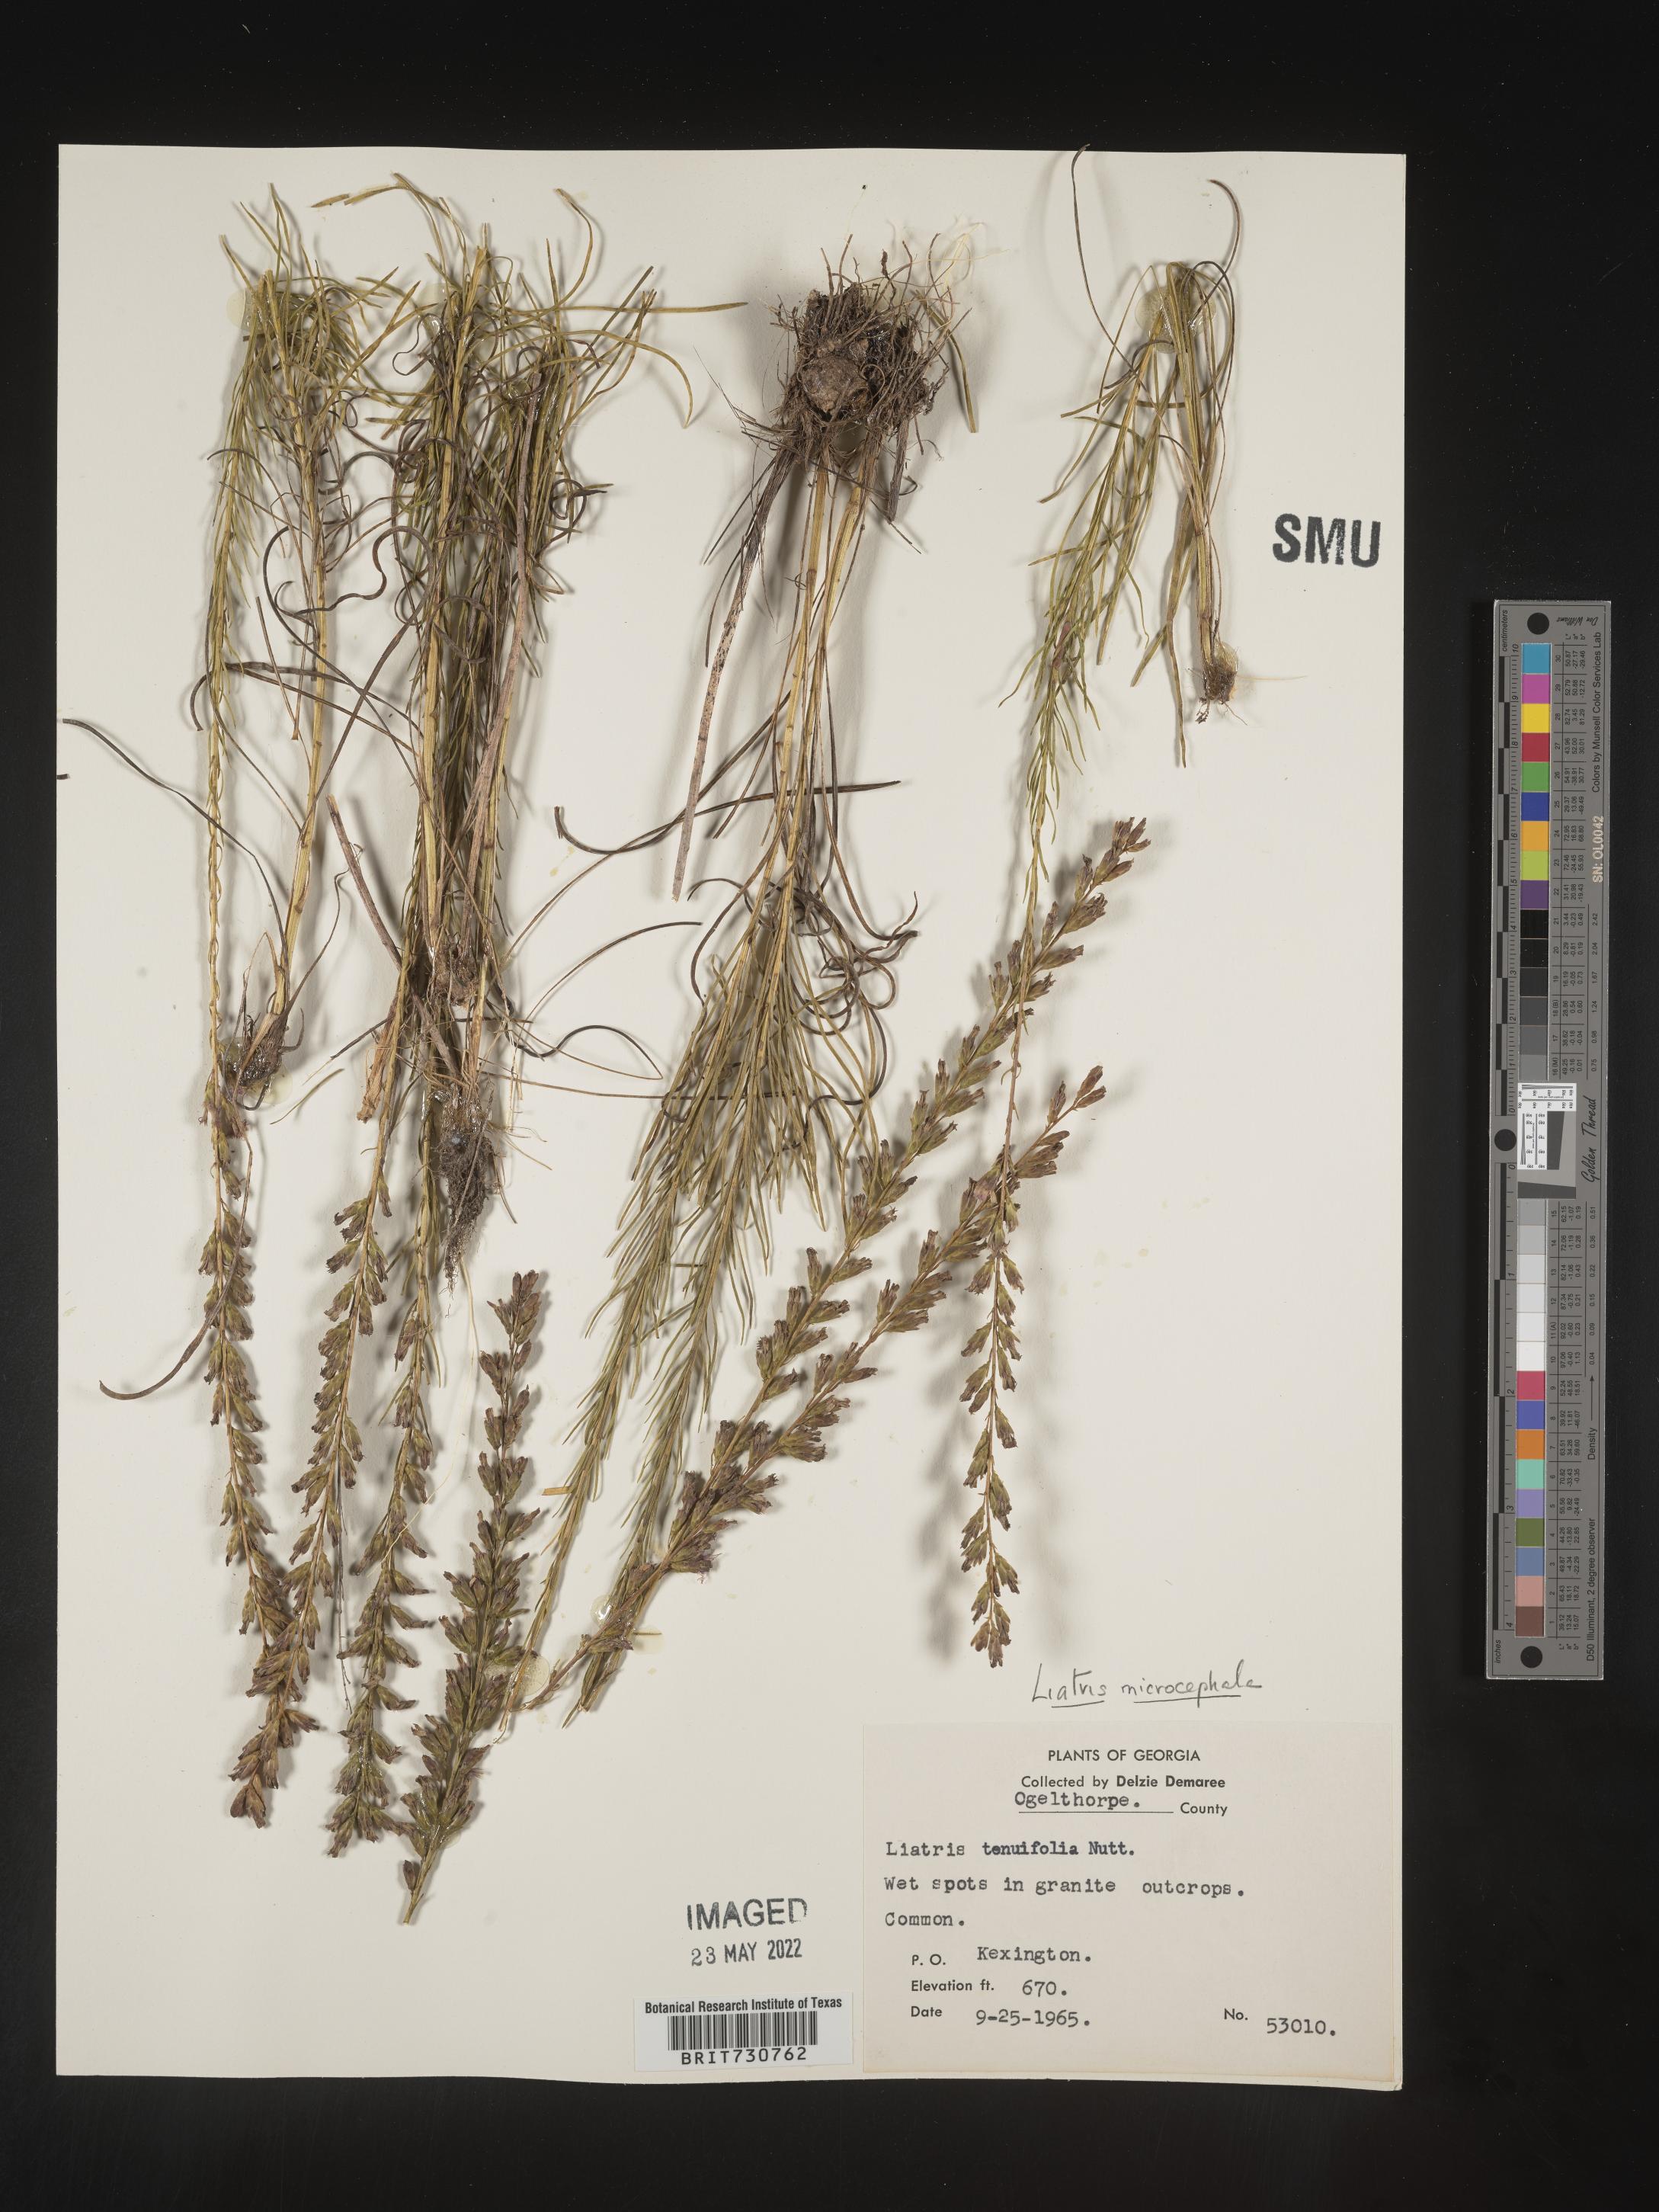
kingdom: Plantae
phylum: Tracheophyta
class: Magnoliopsida
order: Asterales
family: Asteraceae
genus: Liatris
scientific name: Liatris microcephala
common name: Small-head gayfeather
